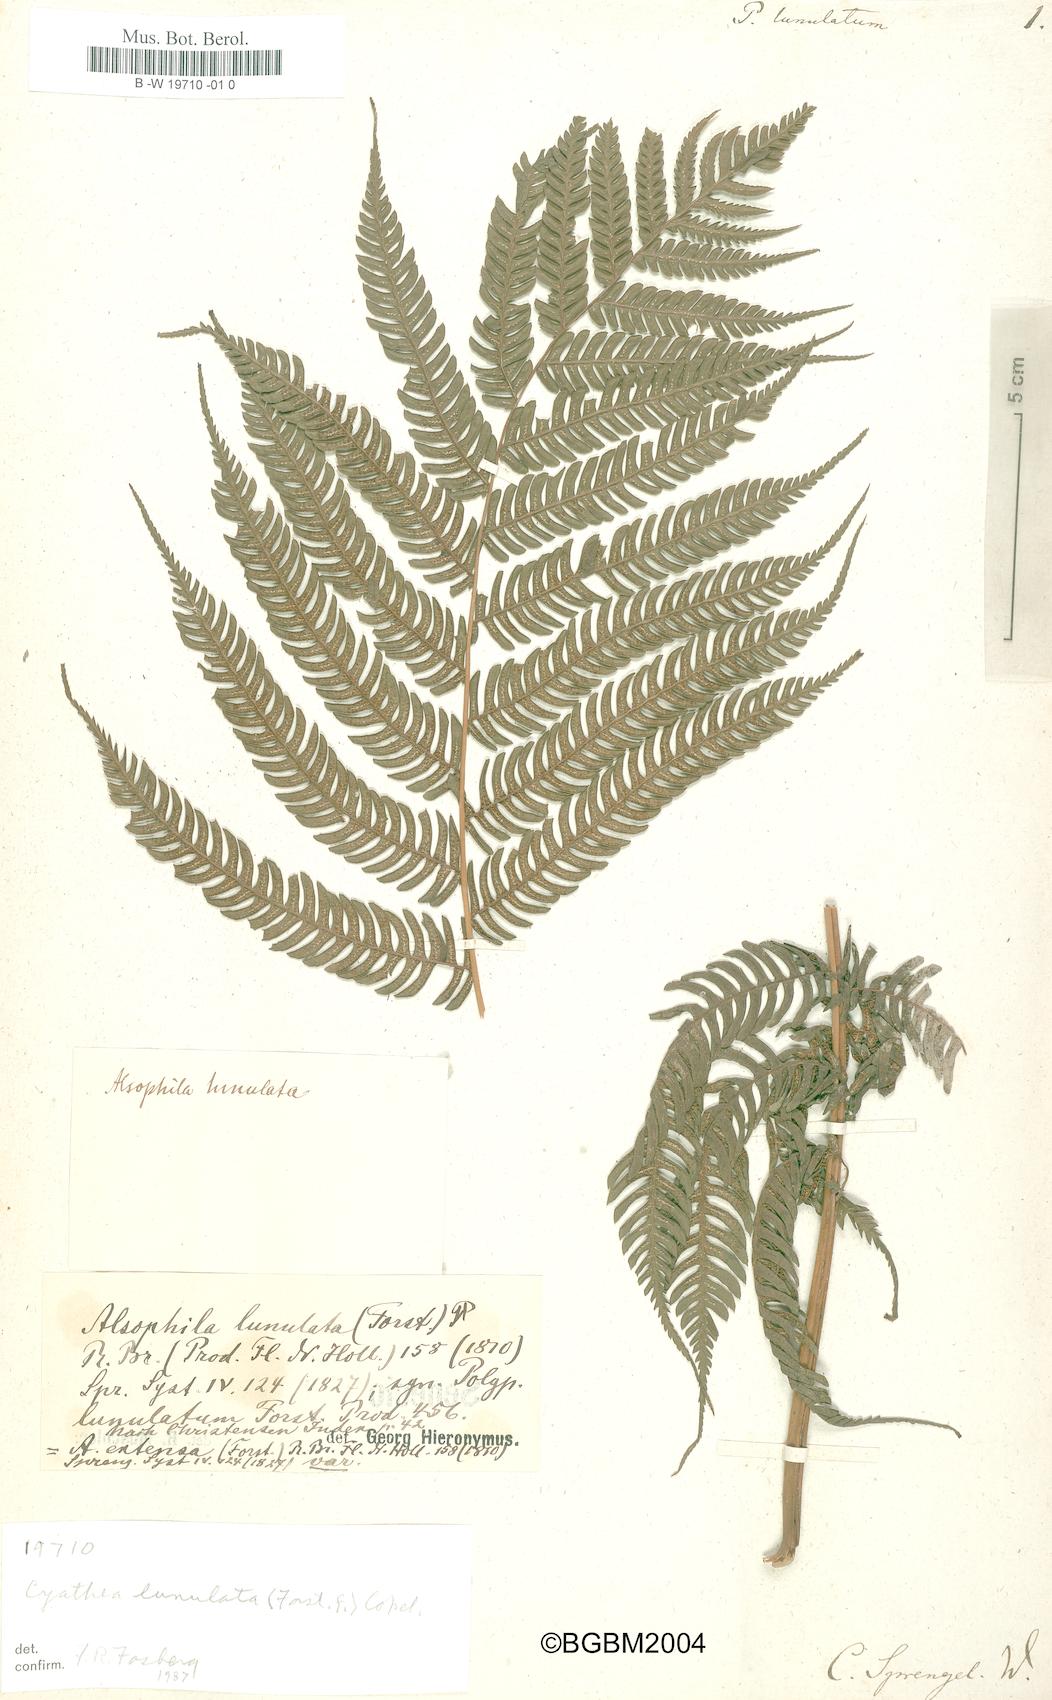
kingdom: Plantae
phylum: Tracheophyta
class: Polypodiopsida
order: Cyatheales
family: Cyatheaceae
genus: Sphaeropteris
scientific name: Sphaeropteris lunulata
